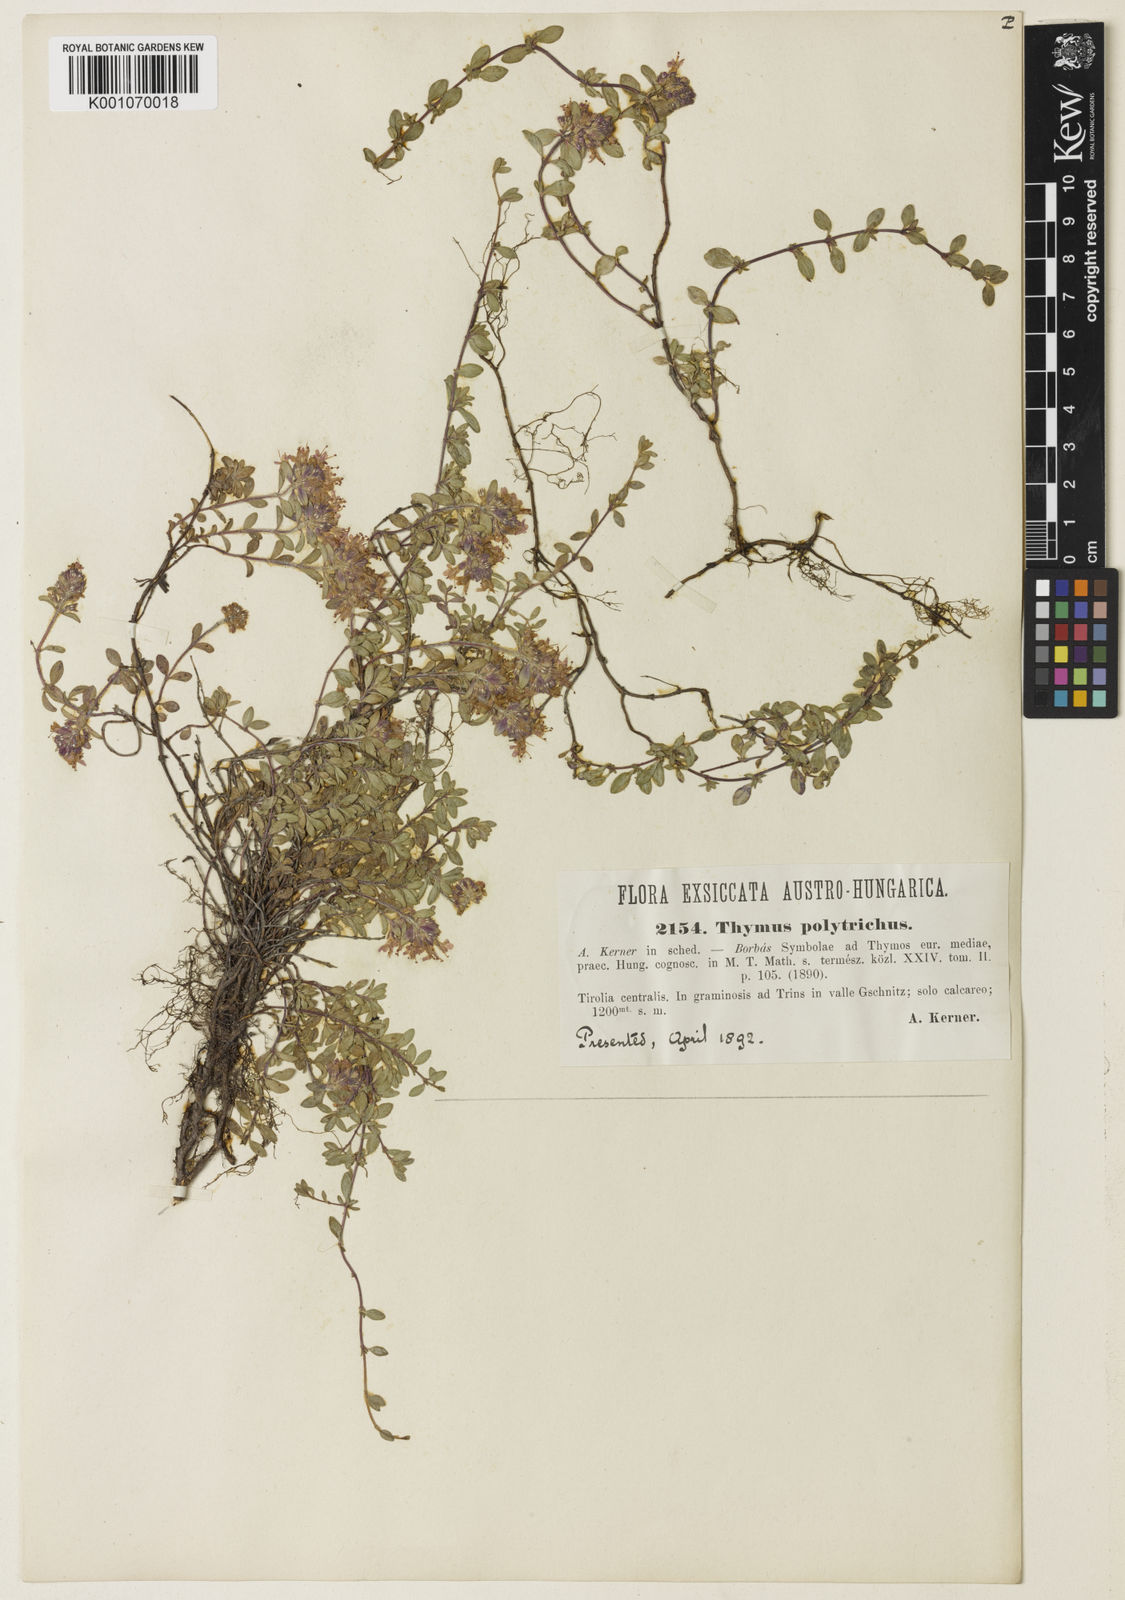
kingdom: Plantae
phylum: Tracheophyta
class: Magnoliopsida
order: Lamiales
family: Lamiaceae
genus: Thymus
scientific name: Thymus praecox
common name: Wild thyme
